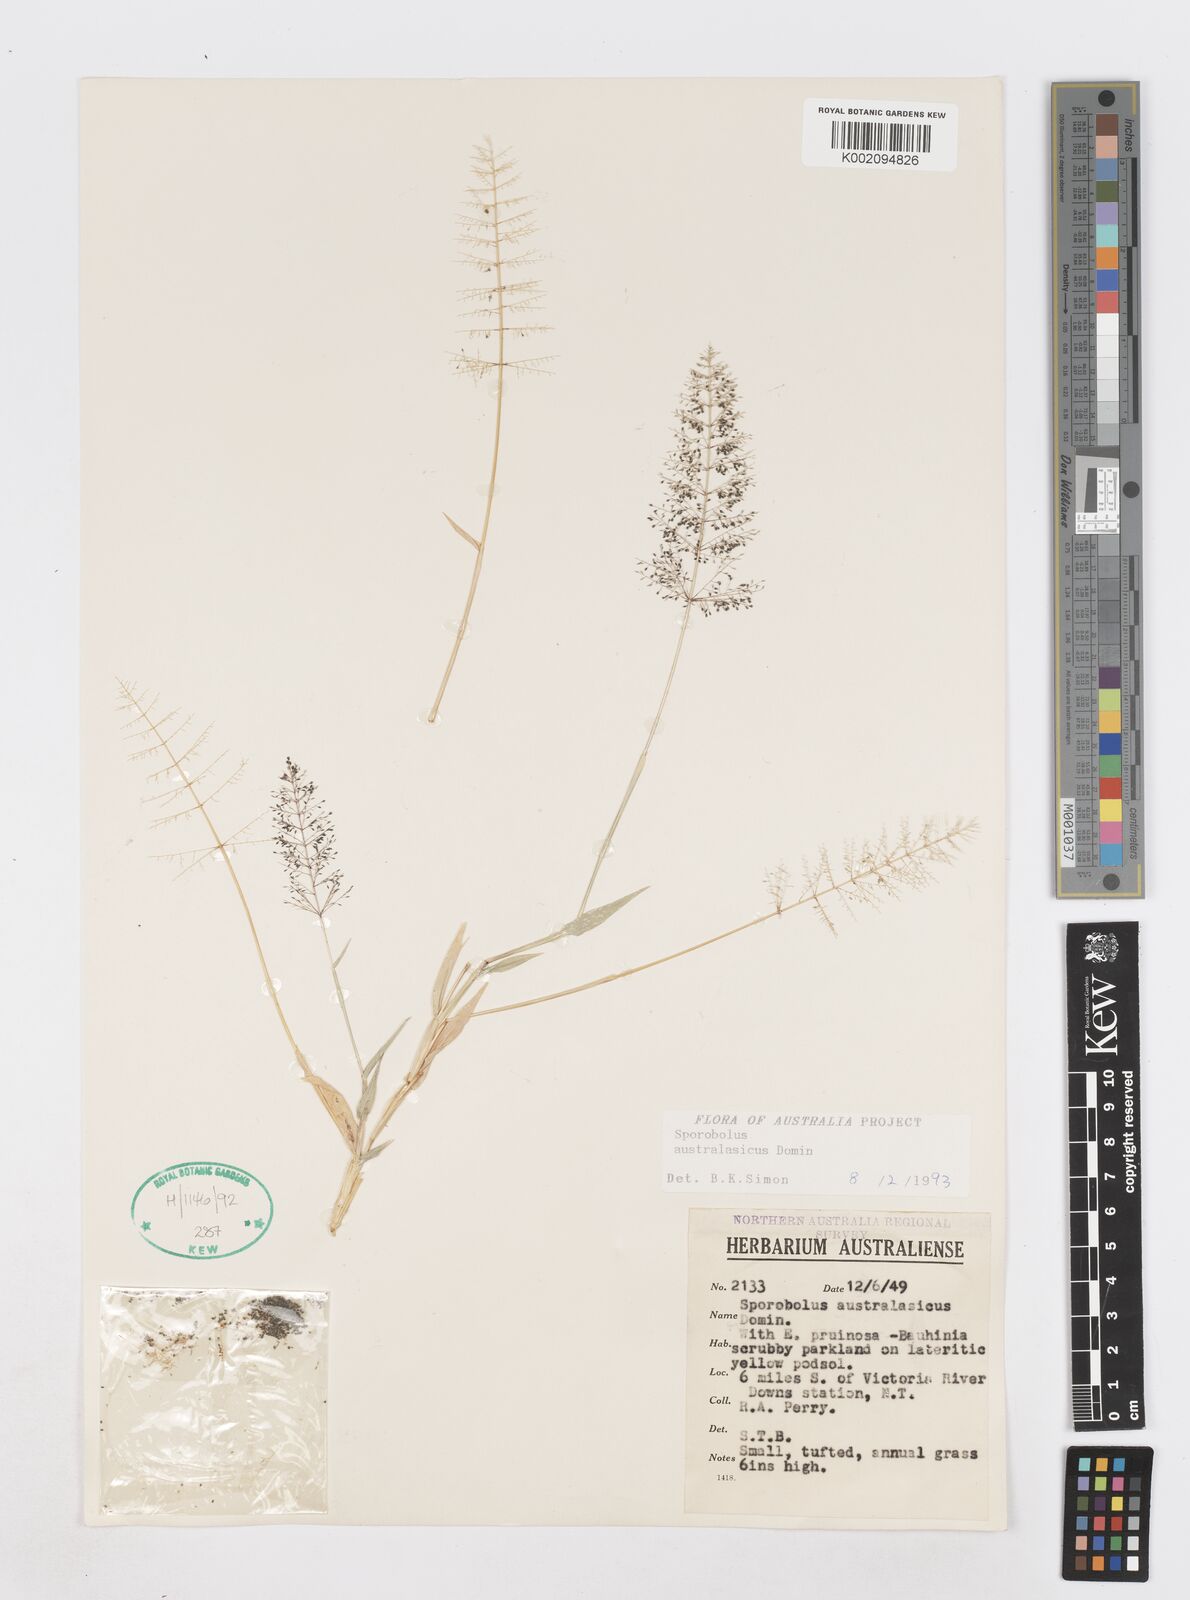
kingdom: Plantae
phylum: Tracheophyta
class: Liliopsida
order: Poales
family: Poaceae
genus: Sporobolus
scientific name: Sporobolus australasicus
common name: Australian dropseed
